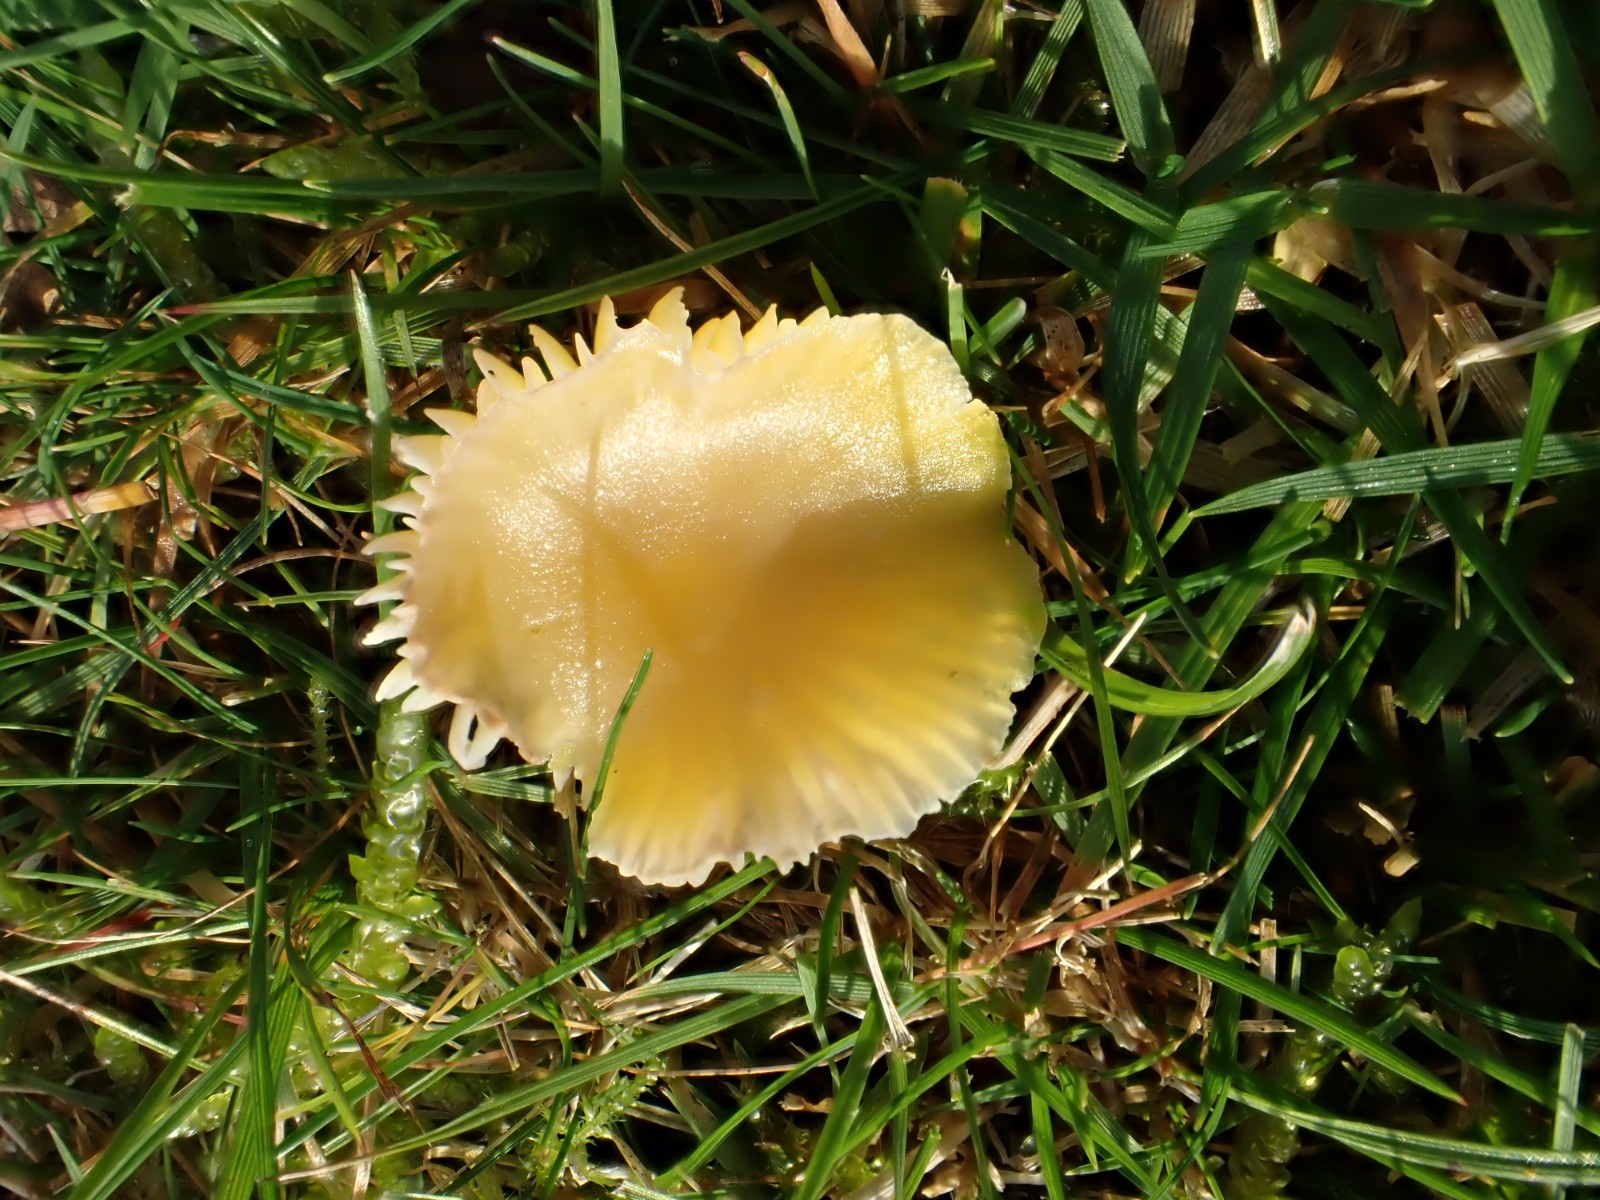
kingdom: Fungi
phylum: Basidiomycota
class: Agaricomycetes
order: Agaricales
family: Hygrophoraceae
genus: Hygrocybe
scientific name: Hygrocybe ceracea
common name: voksgul vokshat
